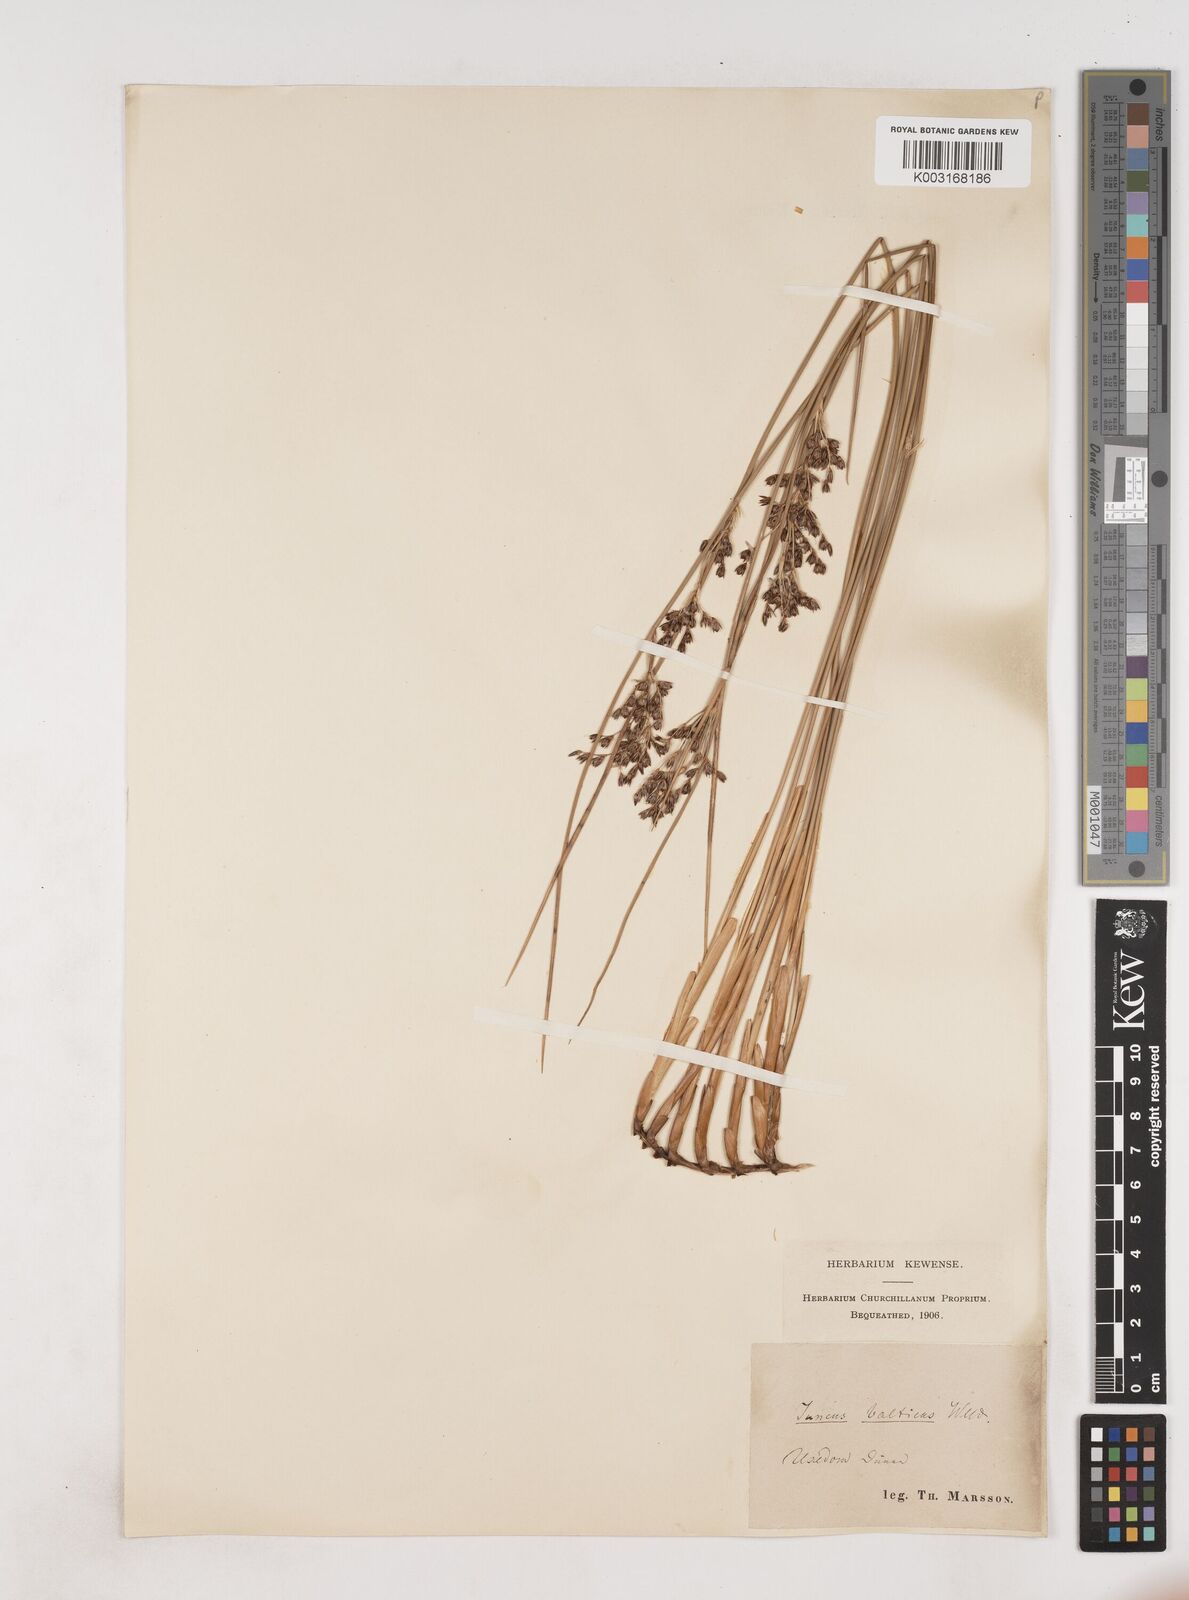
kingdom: Plantae
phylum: Tracheophyta
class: Liliopsida
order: Poales
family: Juncaceae
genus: Juncus
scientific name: Juncus balticus
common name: Baltic rush
